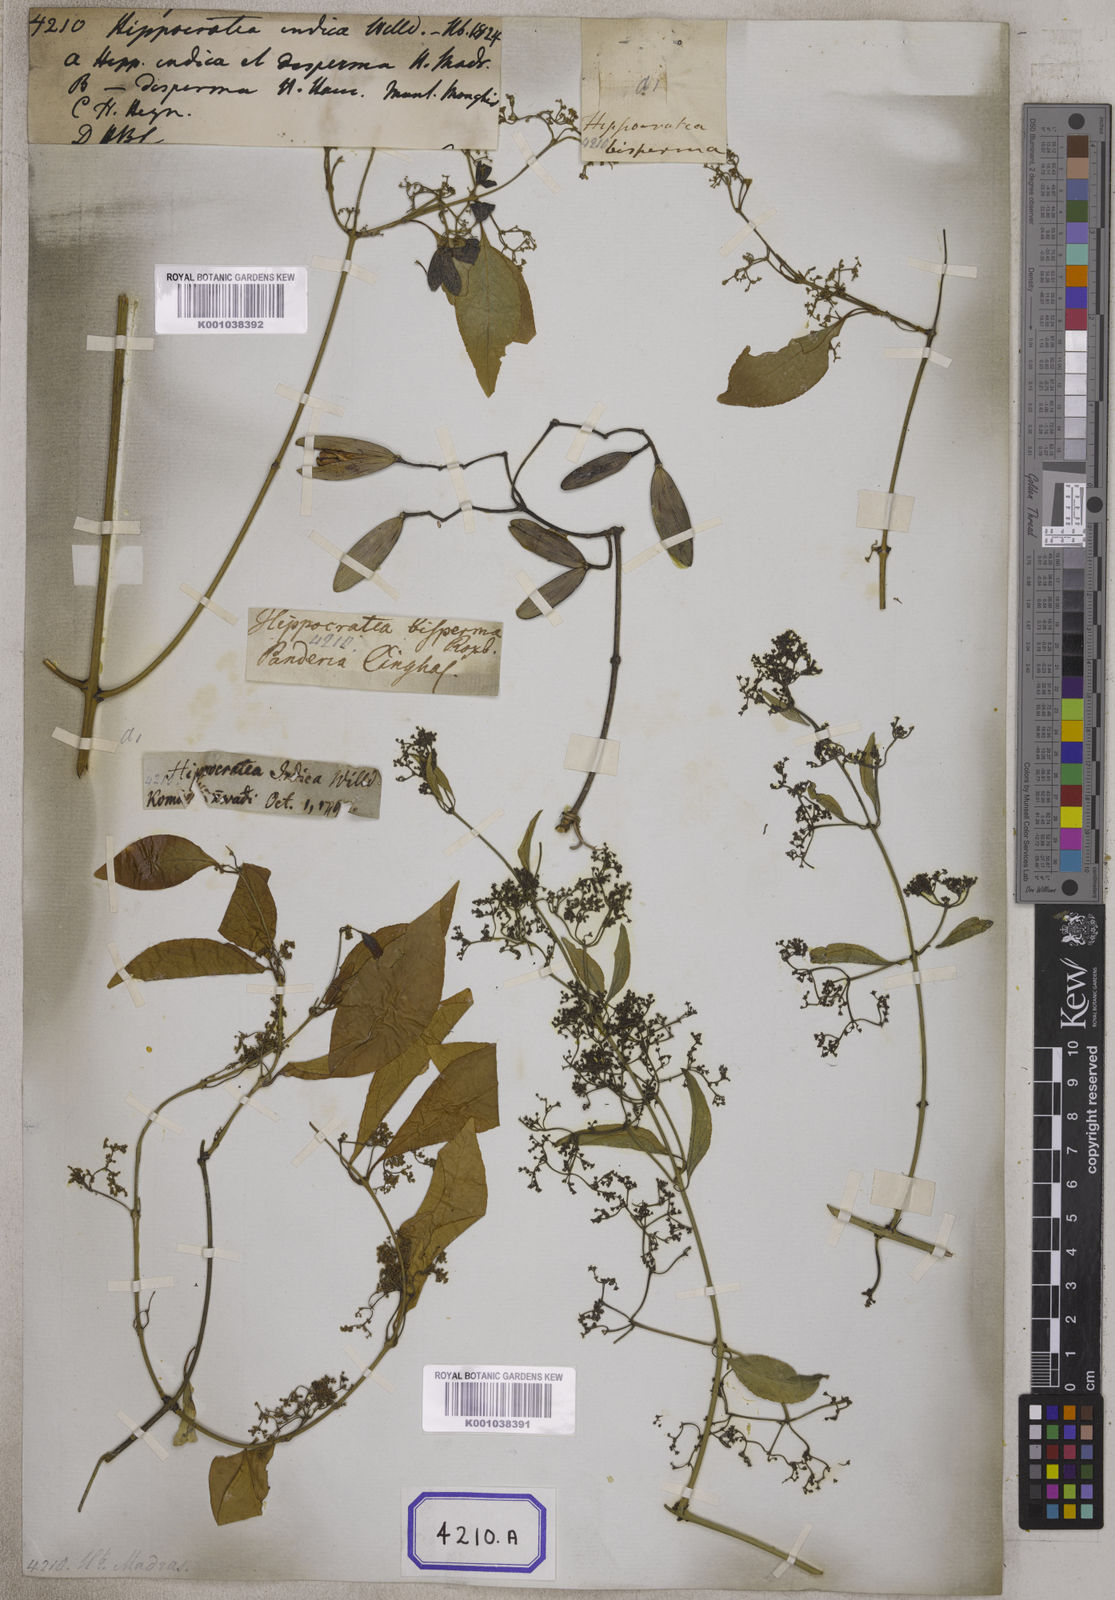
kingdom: Plantae
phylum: Tracheophyta
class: Magnoliopsida
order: Celastrales
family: Celastraceae
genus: Reissantia
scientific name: Reissantia indica
